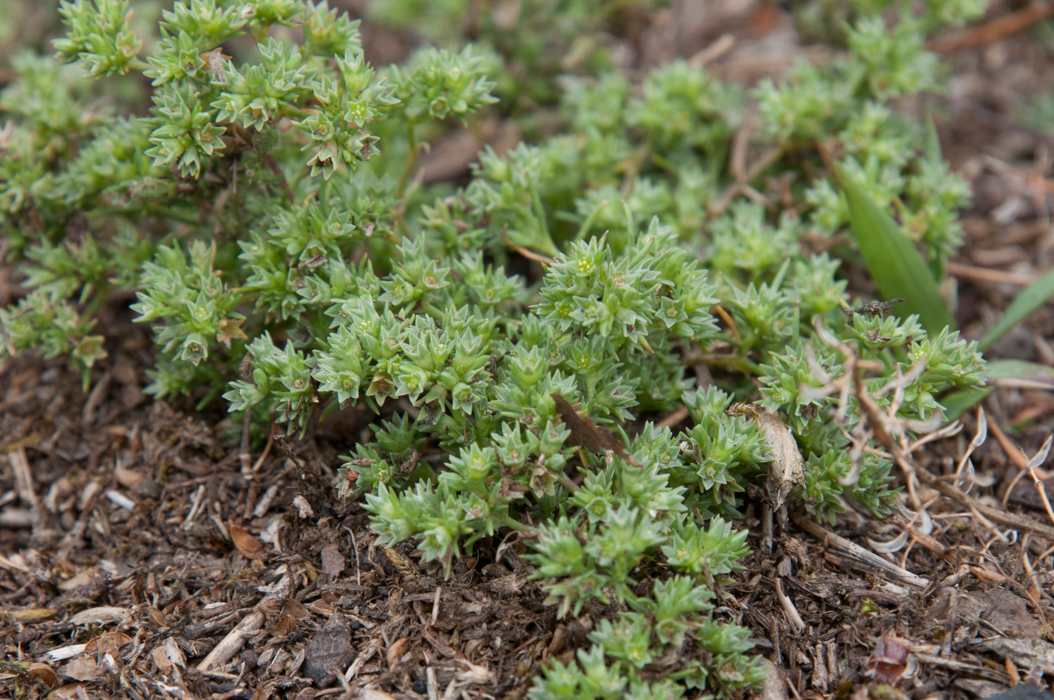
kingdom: Plantae
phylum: Tracheophyta
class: Magnoliopsida
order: Caryophyllales
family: Caryophyllaceae
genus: Scleranthus
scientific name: Scleranthus annuus
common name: Annual knawel
